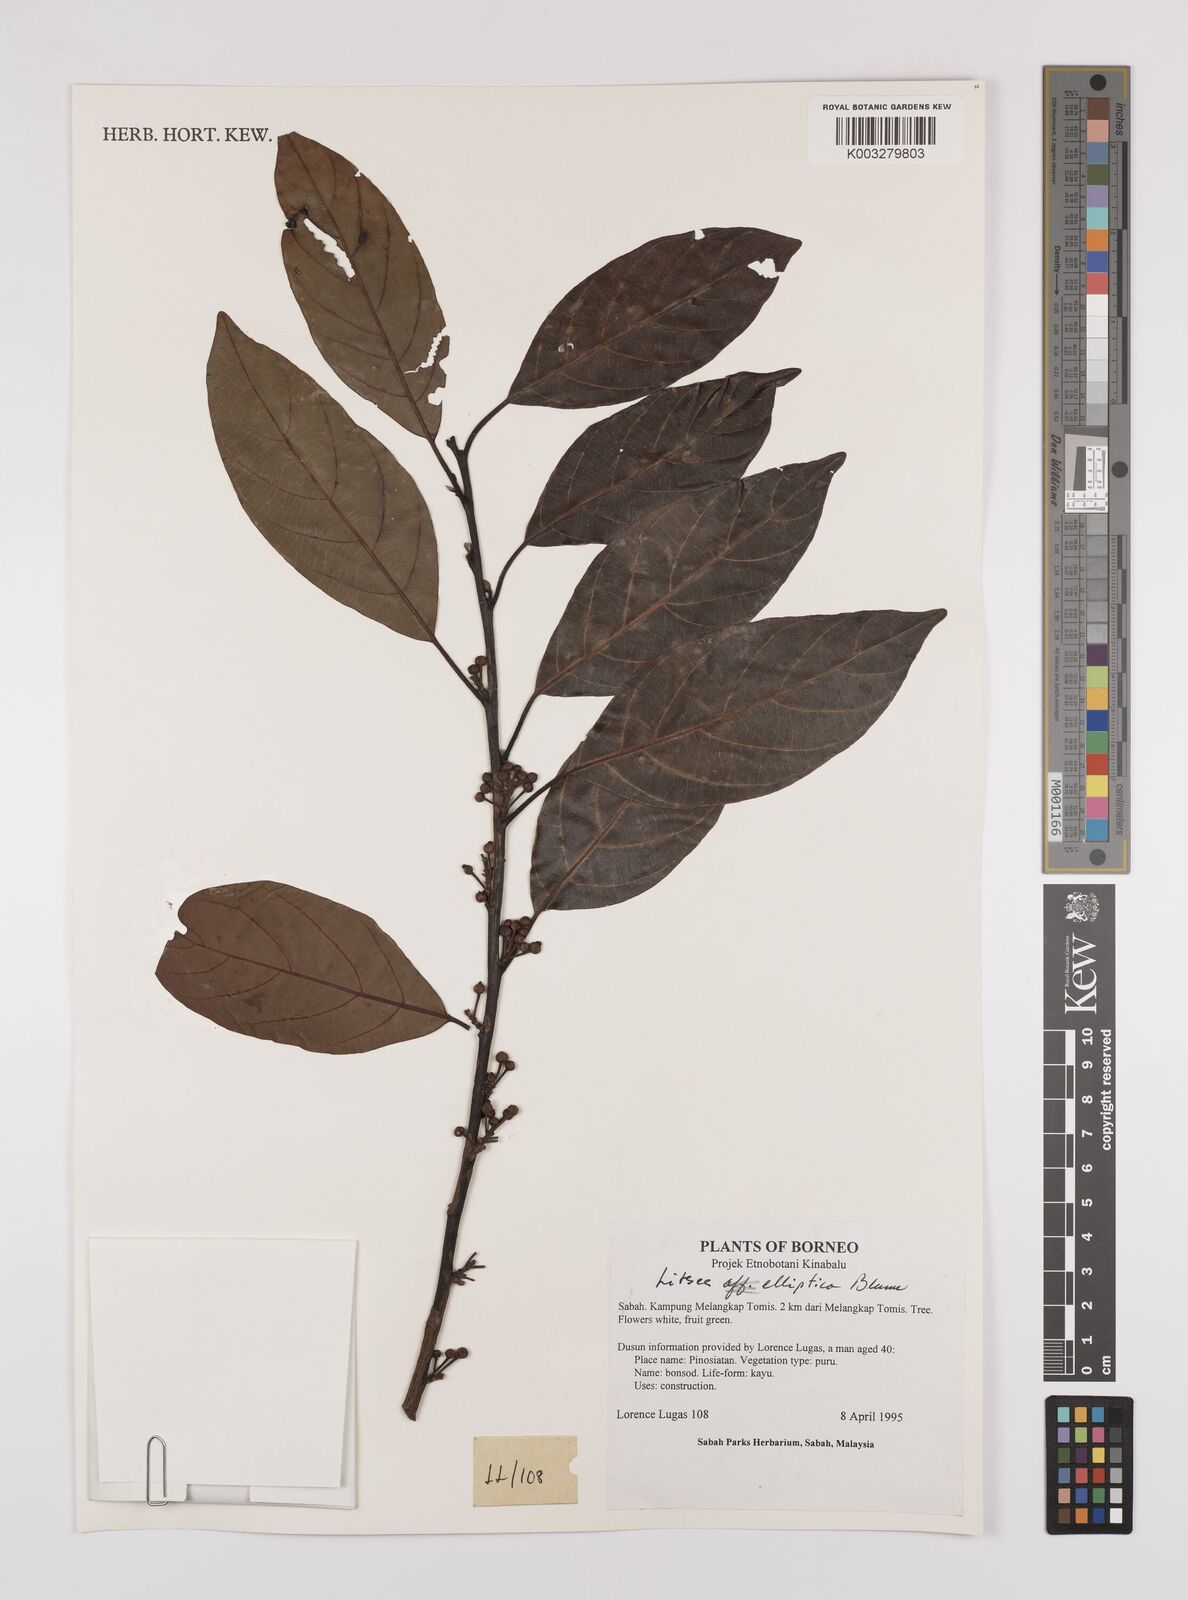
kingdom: Plantae
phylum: Tracheophyta
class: Magnoliopsida
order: Laurales
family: Lauraceae
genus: Litsea
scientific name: Litsea elliptica
